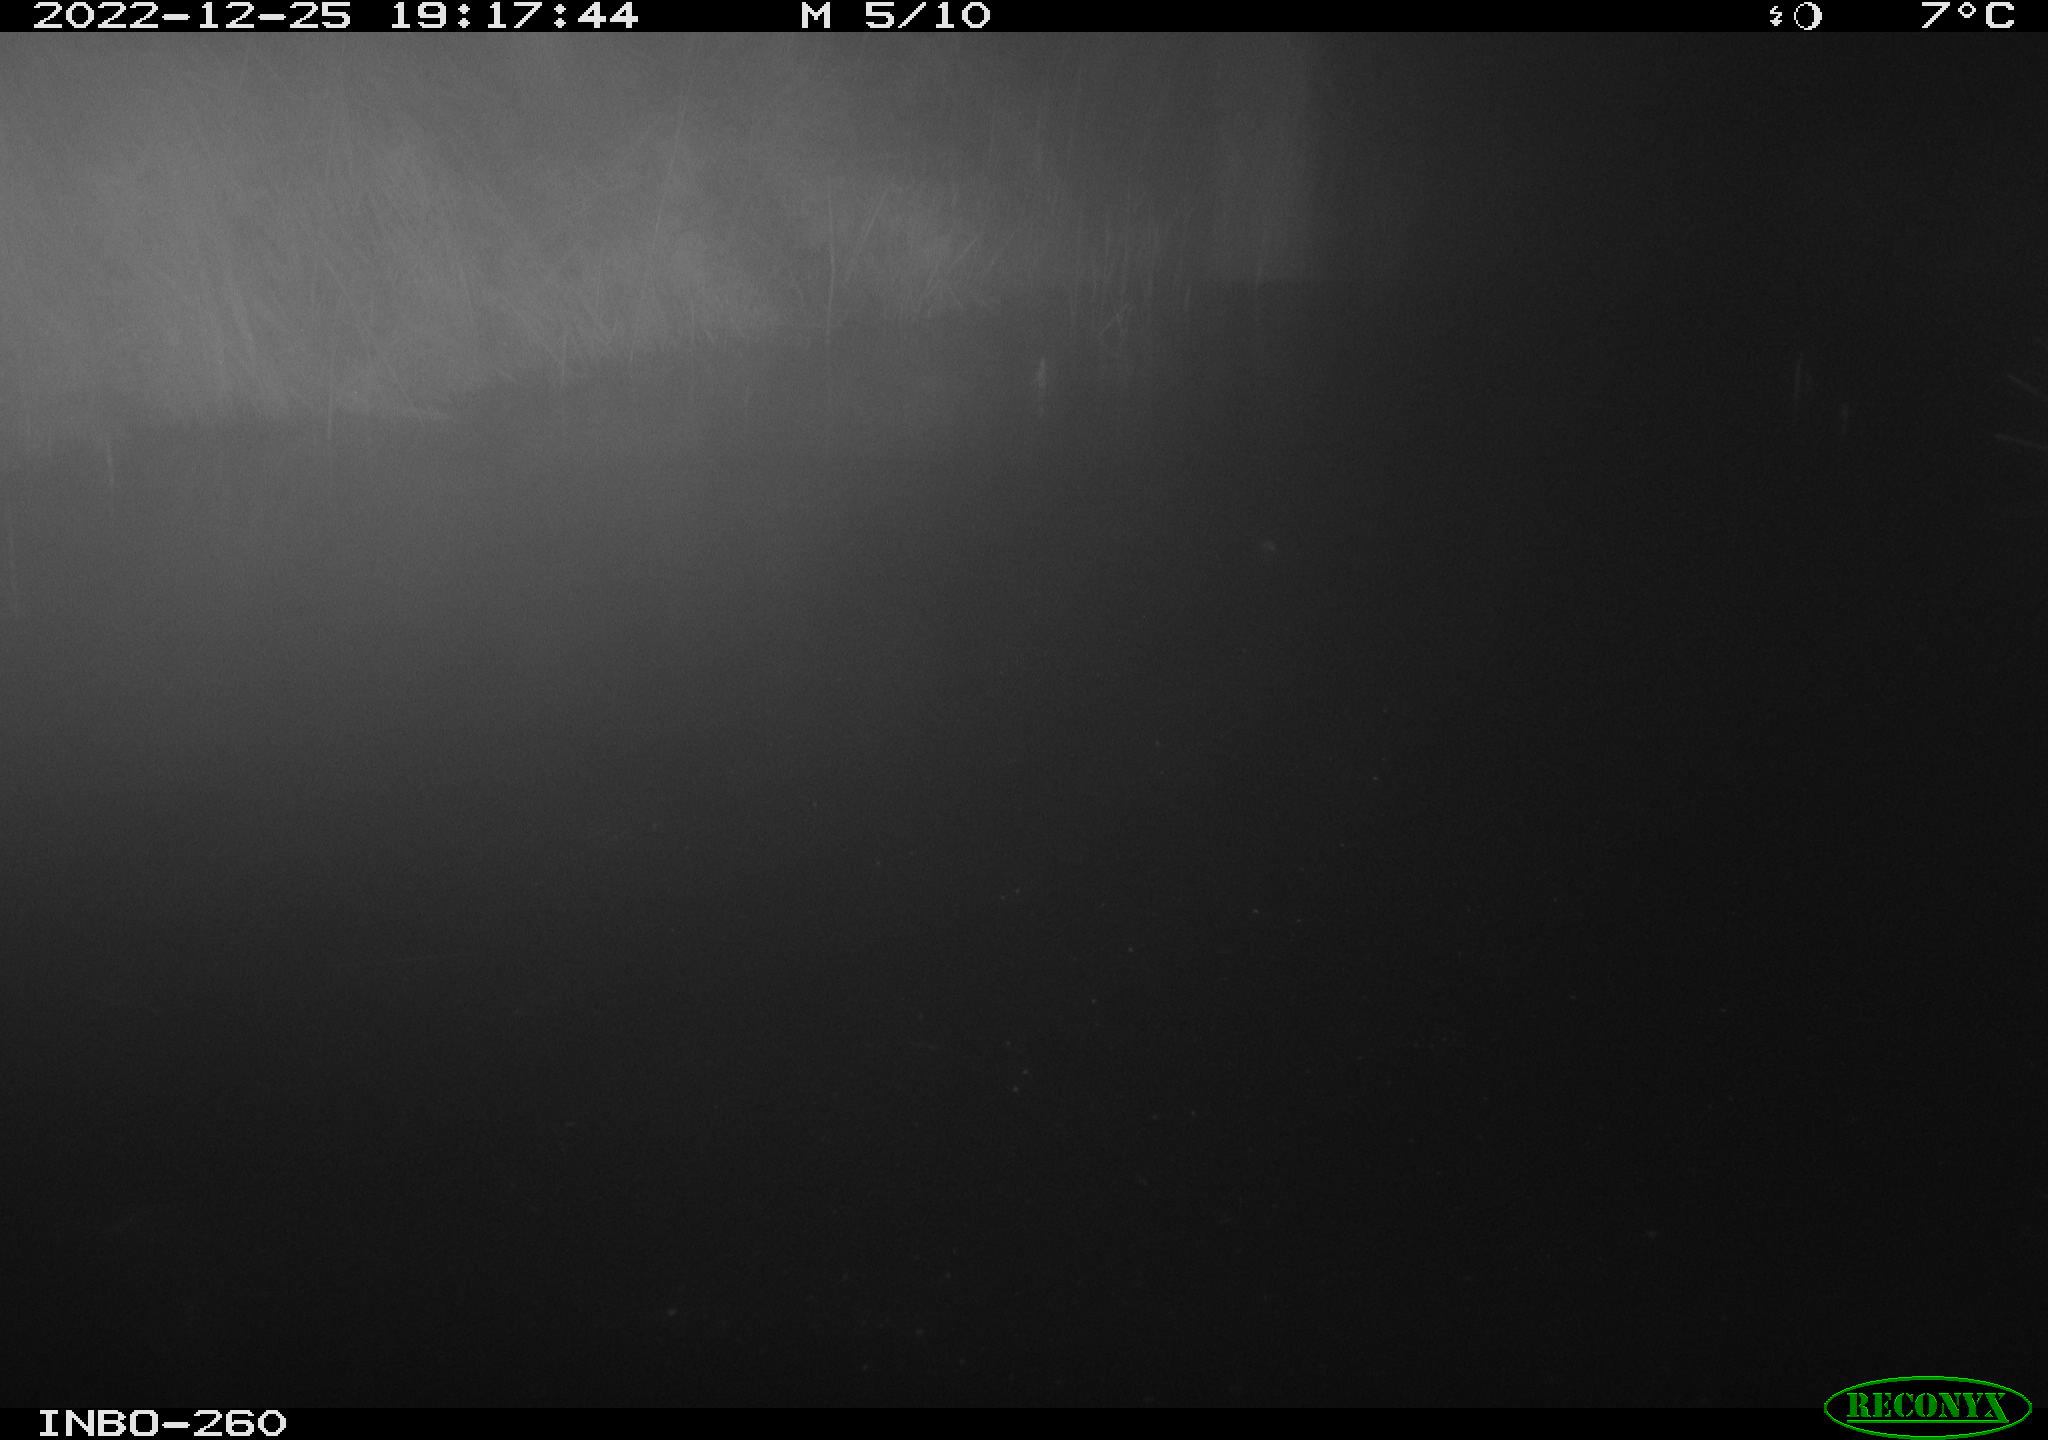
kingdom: Animalia
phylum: Chordata
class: Mammalia
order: Rodentia
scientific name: Rodentia
